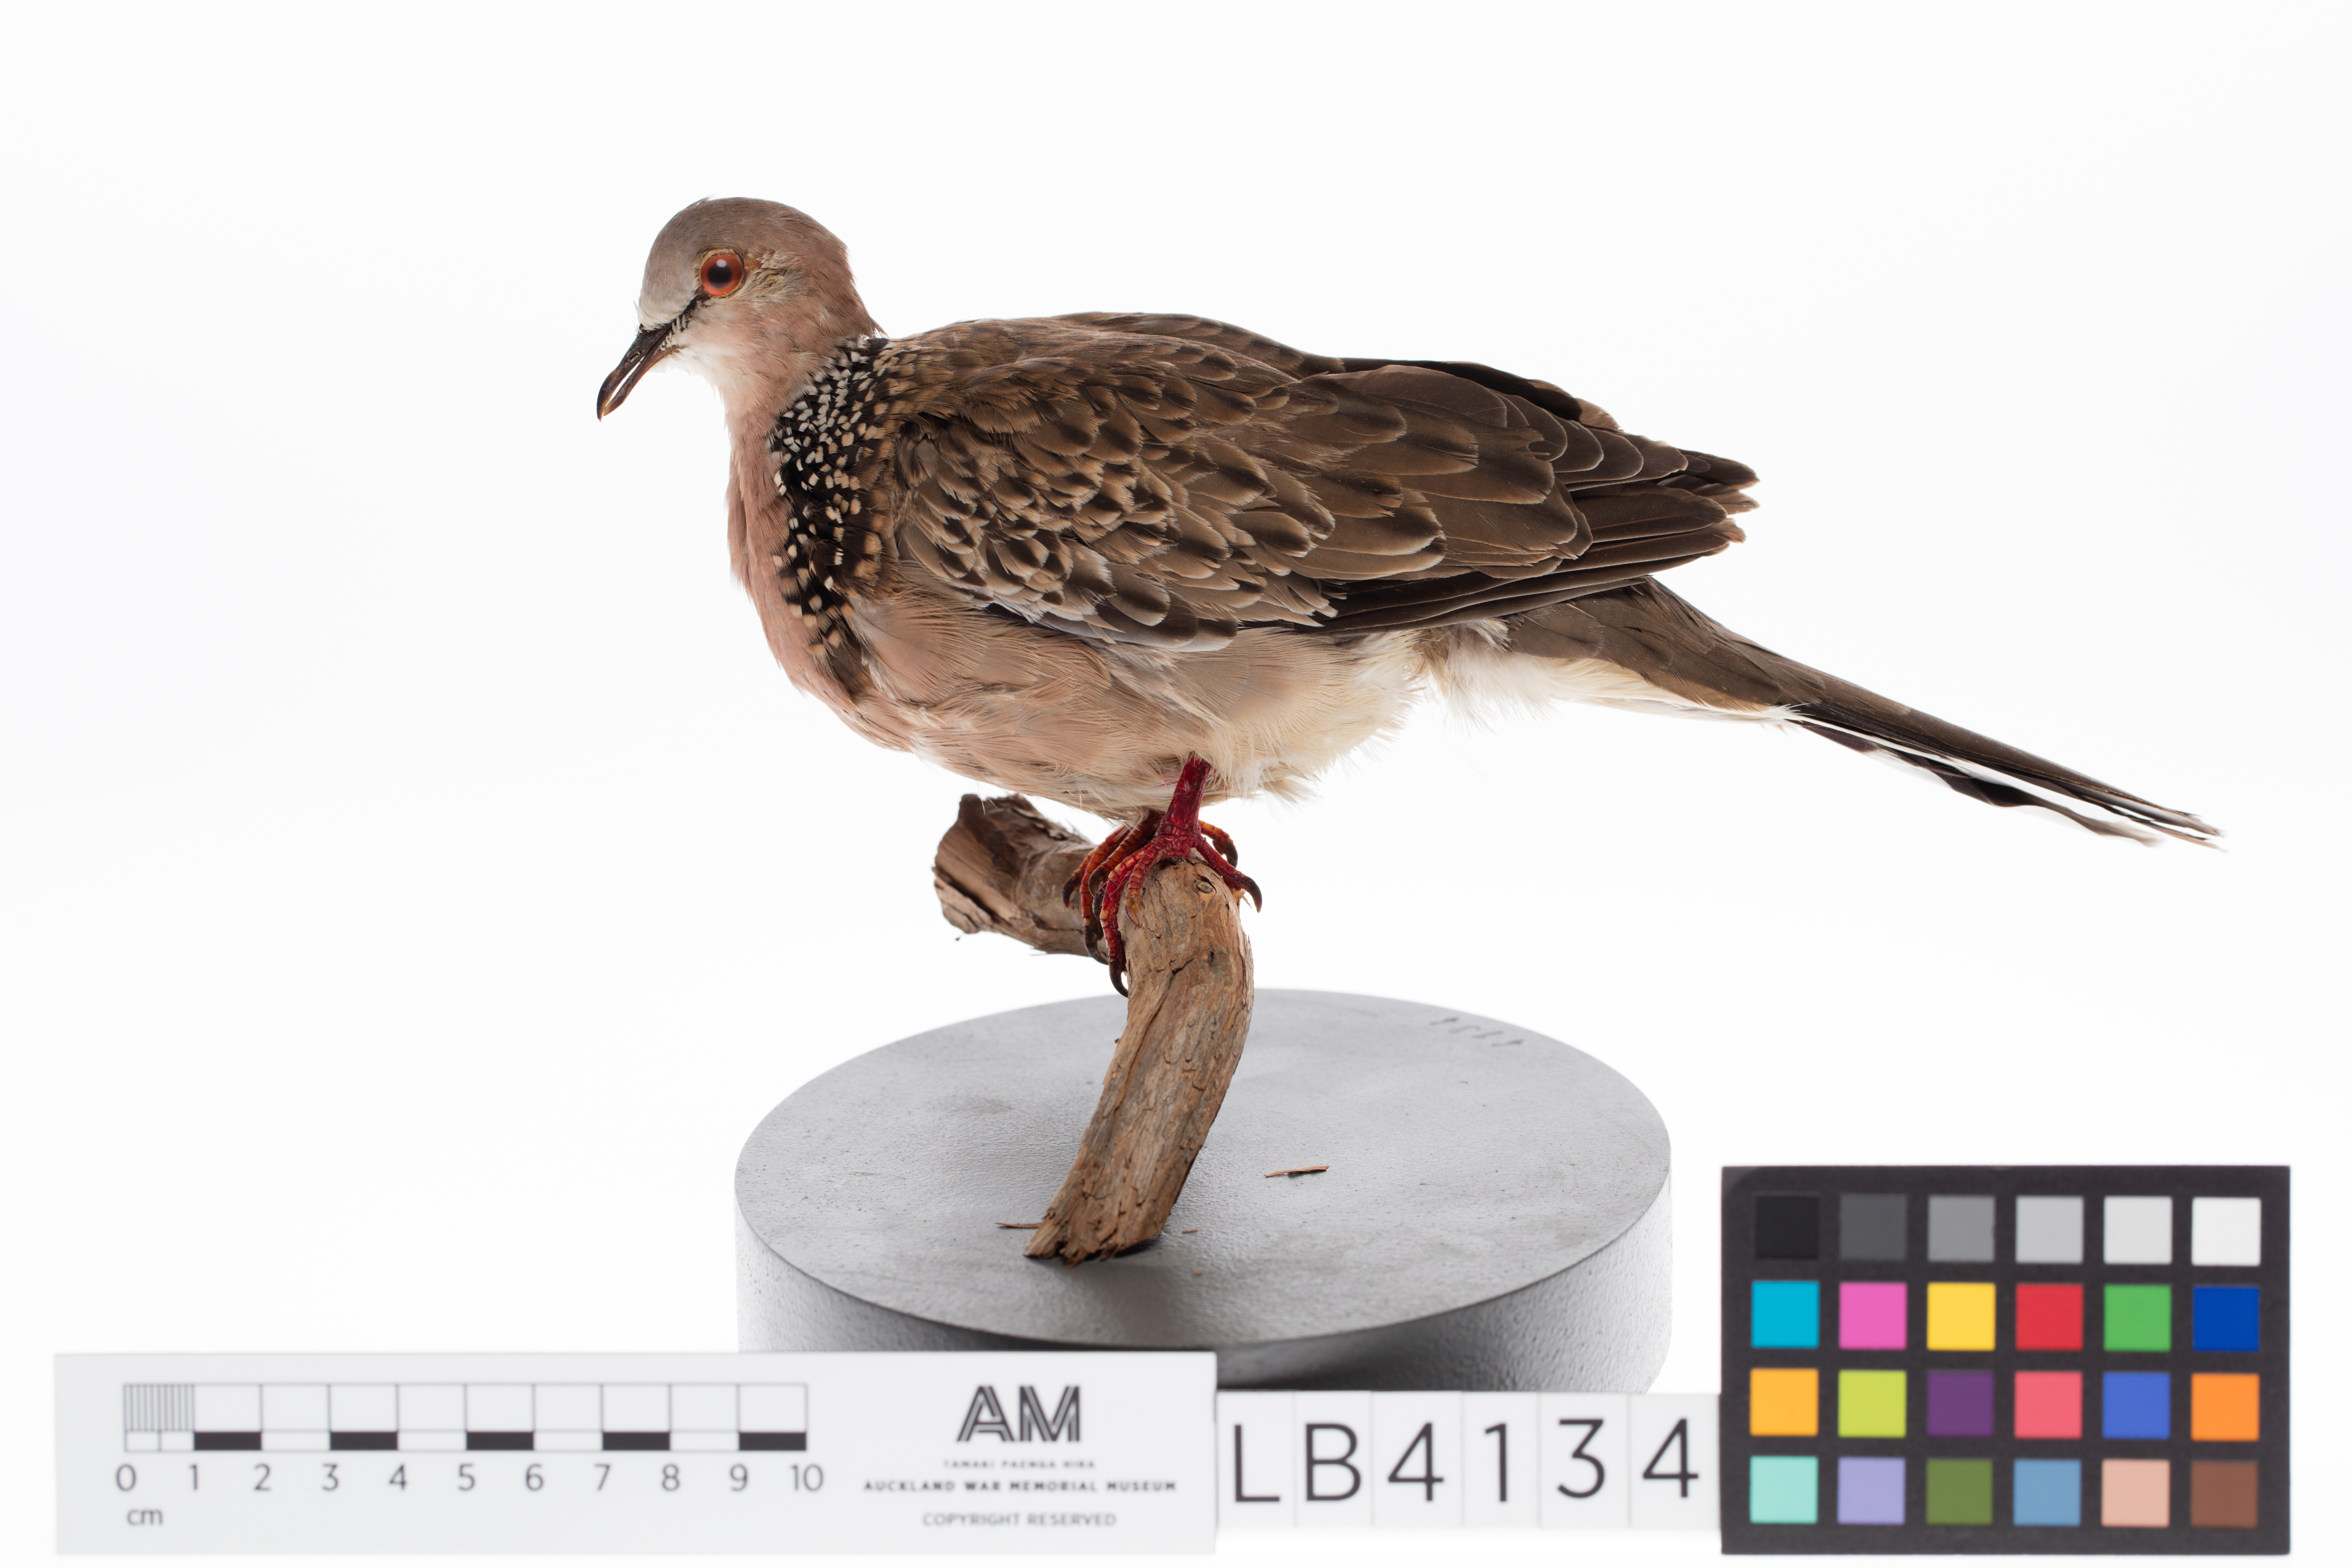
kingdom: Animalia
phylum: Chordata
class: Aves
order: Columbiformes
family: Columbidae
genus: Spilopelia
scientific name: Spilopelia chinensis
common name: Spotted dove
